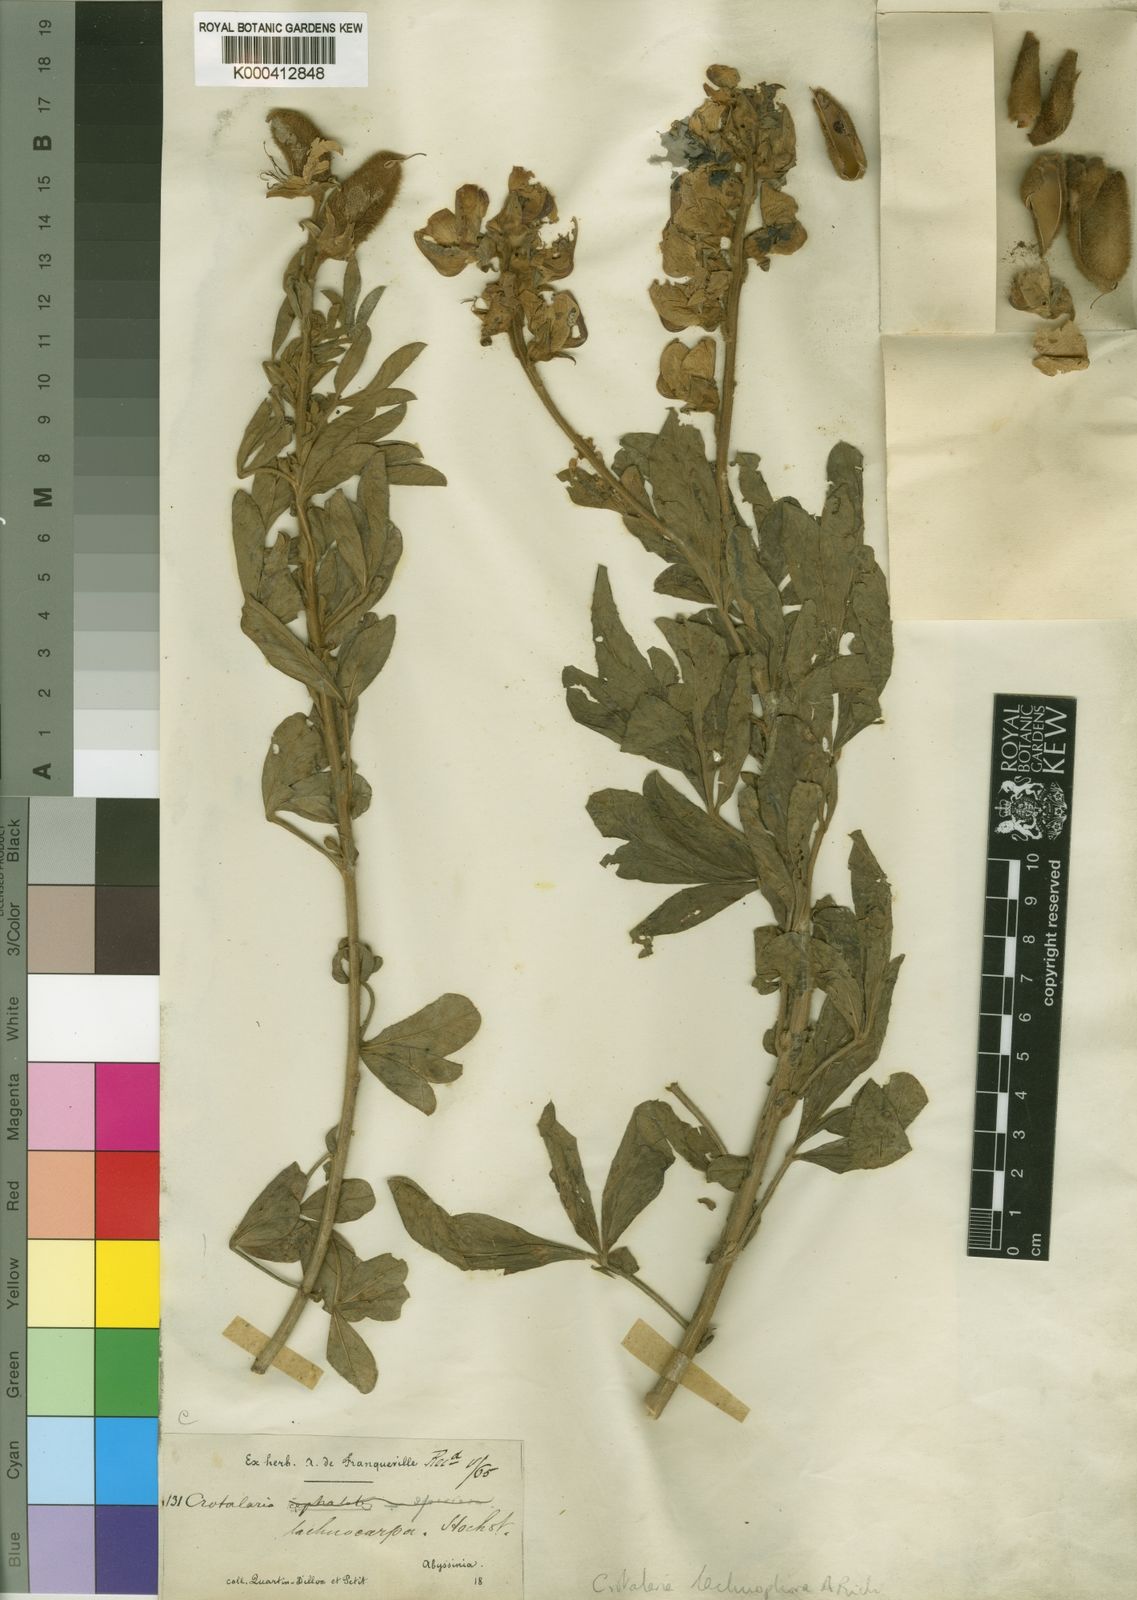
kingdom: Plantae
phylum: Tracheophyta
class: Magnoliopsida
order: Fabales
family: Fabaceae
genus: Crotalaria
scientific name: Crotalaria lachnophora
